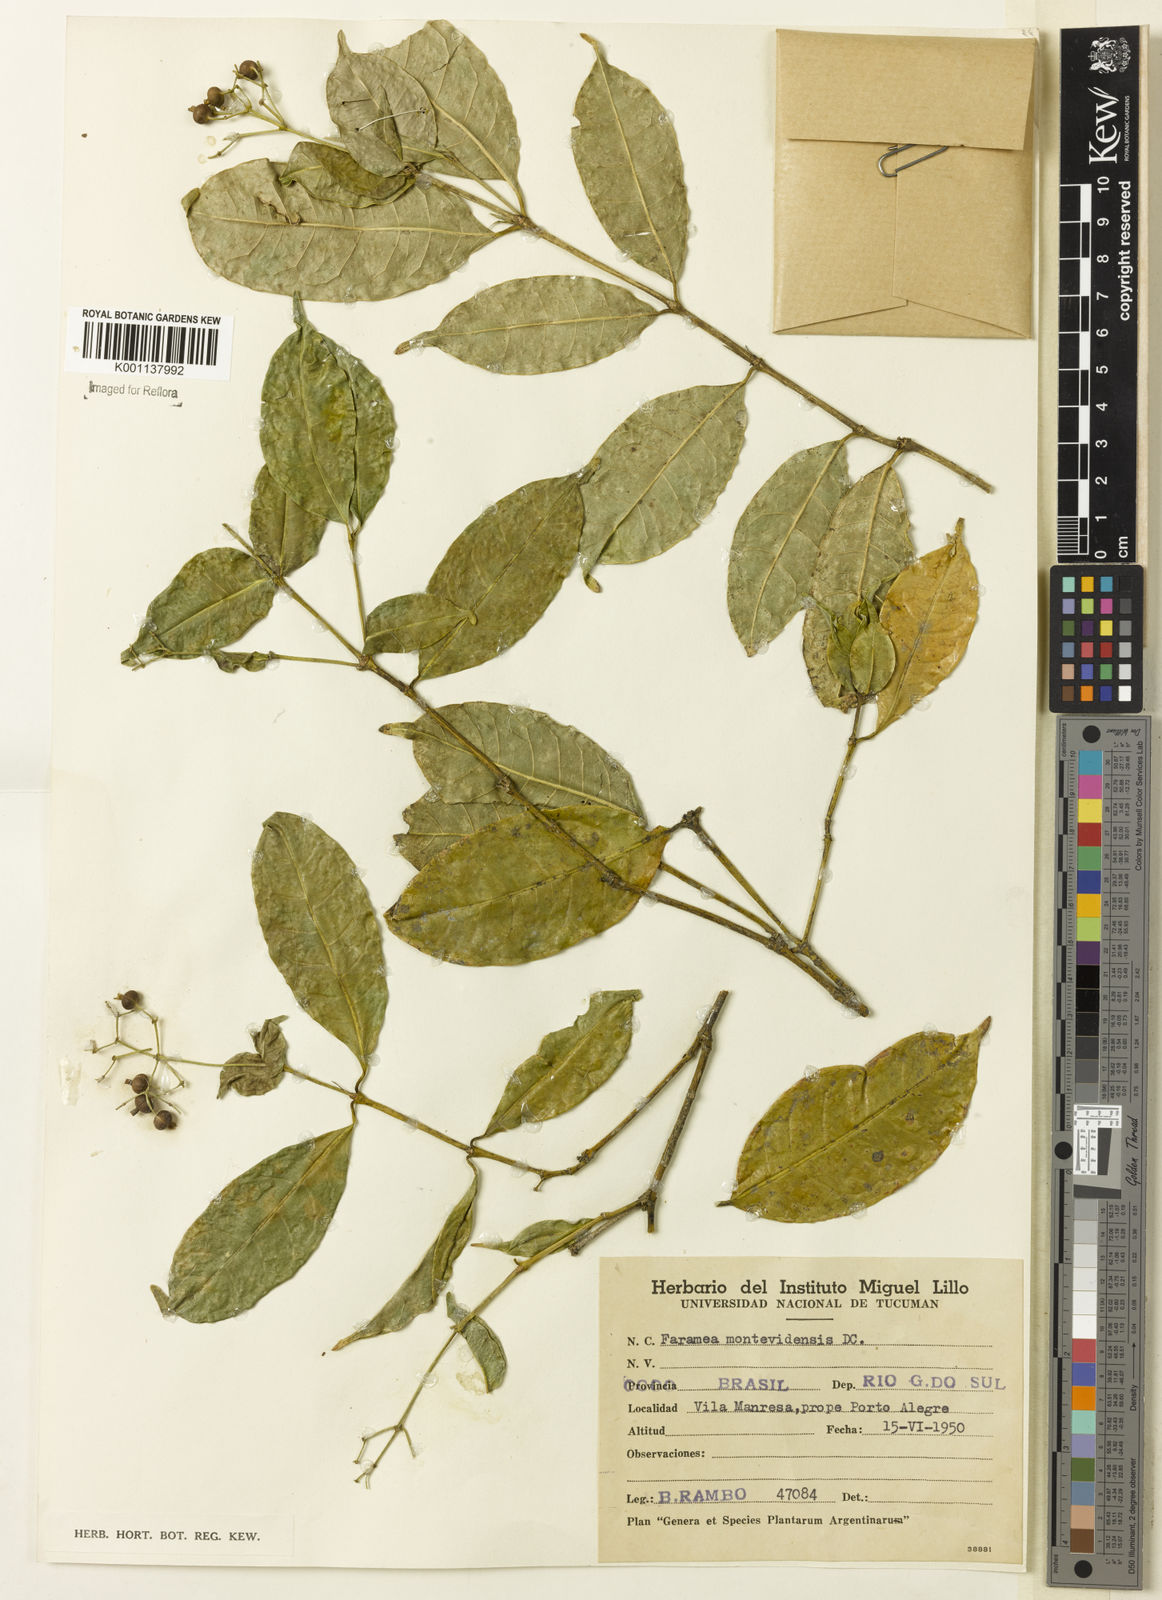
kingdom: Plantae
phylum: Tracheophyta
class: Magnoliopsida
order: Gentianales
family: Rubiaceae
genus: Faramea
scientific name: Faramea montevidensis
